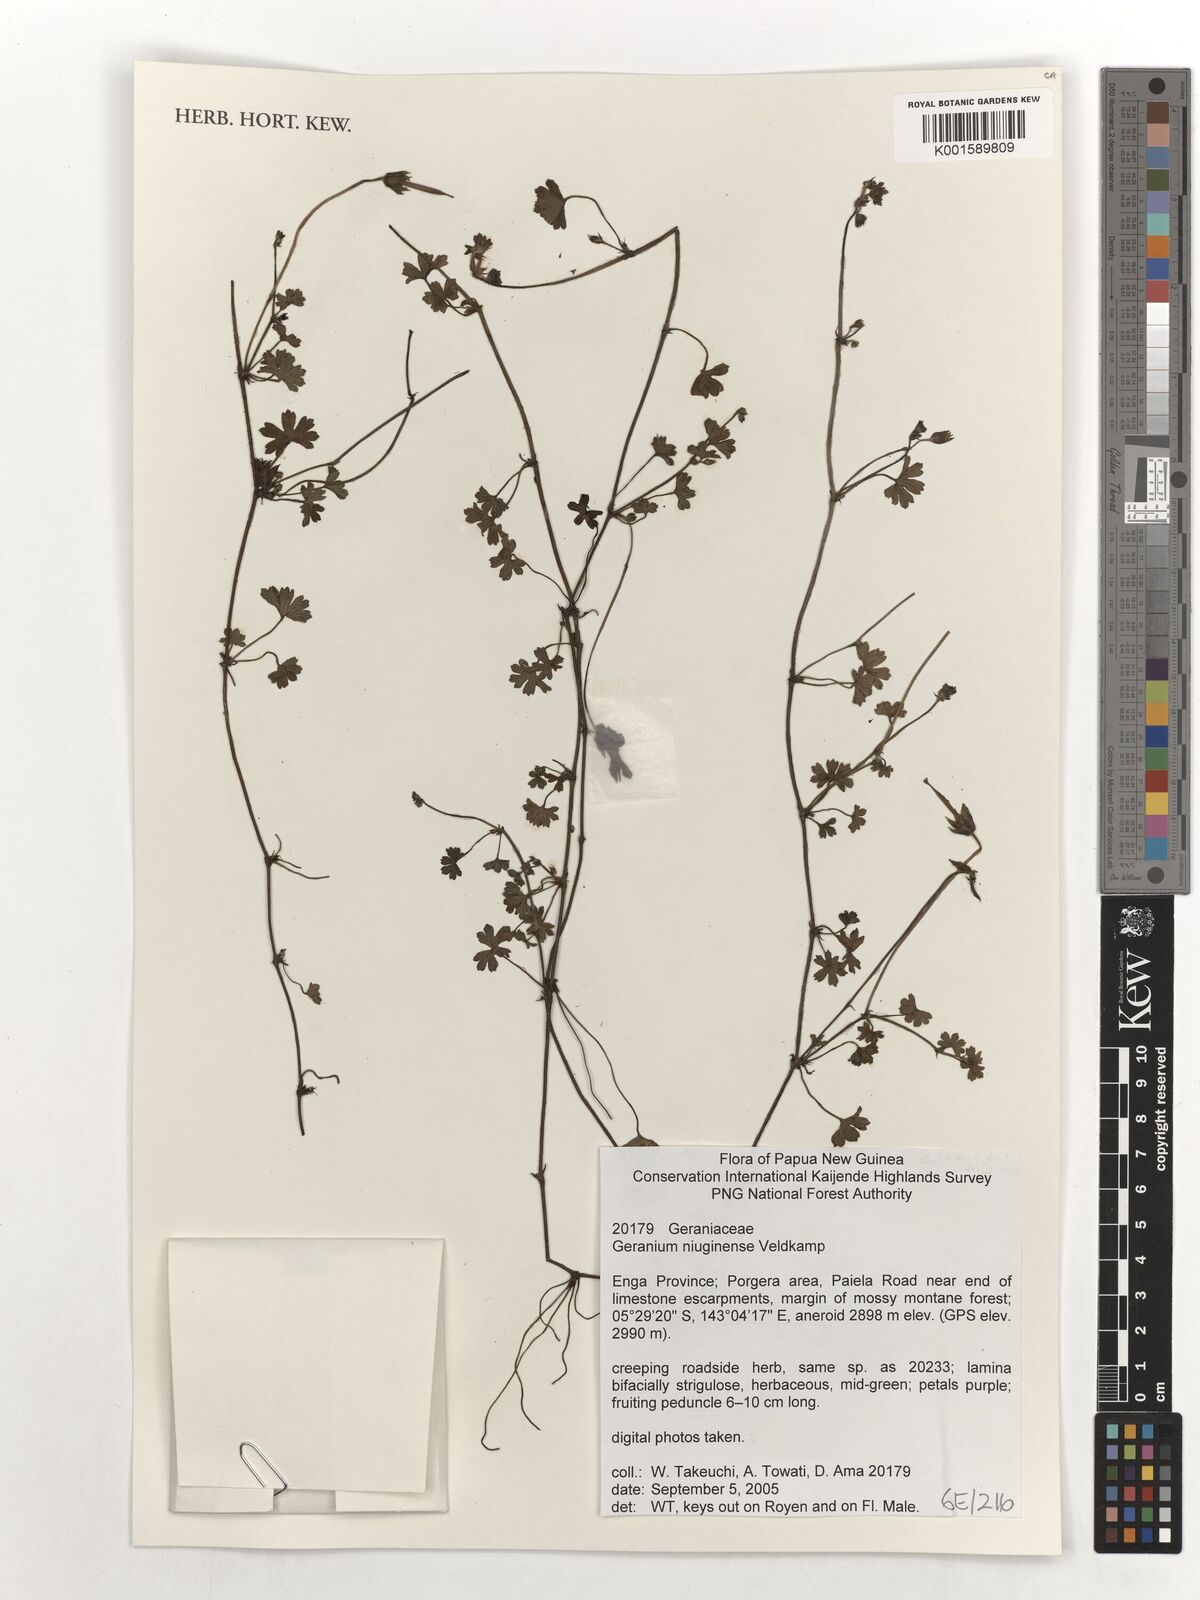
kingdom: Plantae
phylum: Tracheophyta
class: Magnoliopsida
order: Geraniales
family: Geraniaceae
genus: Geranium
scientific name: Geranium niuginiense
